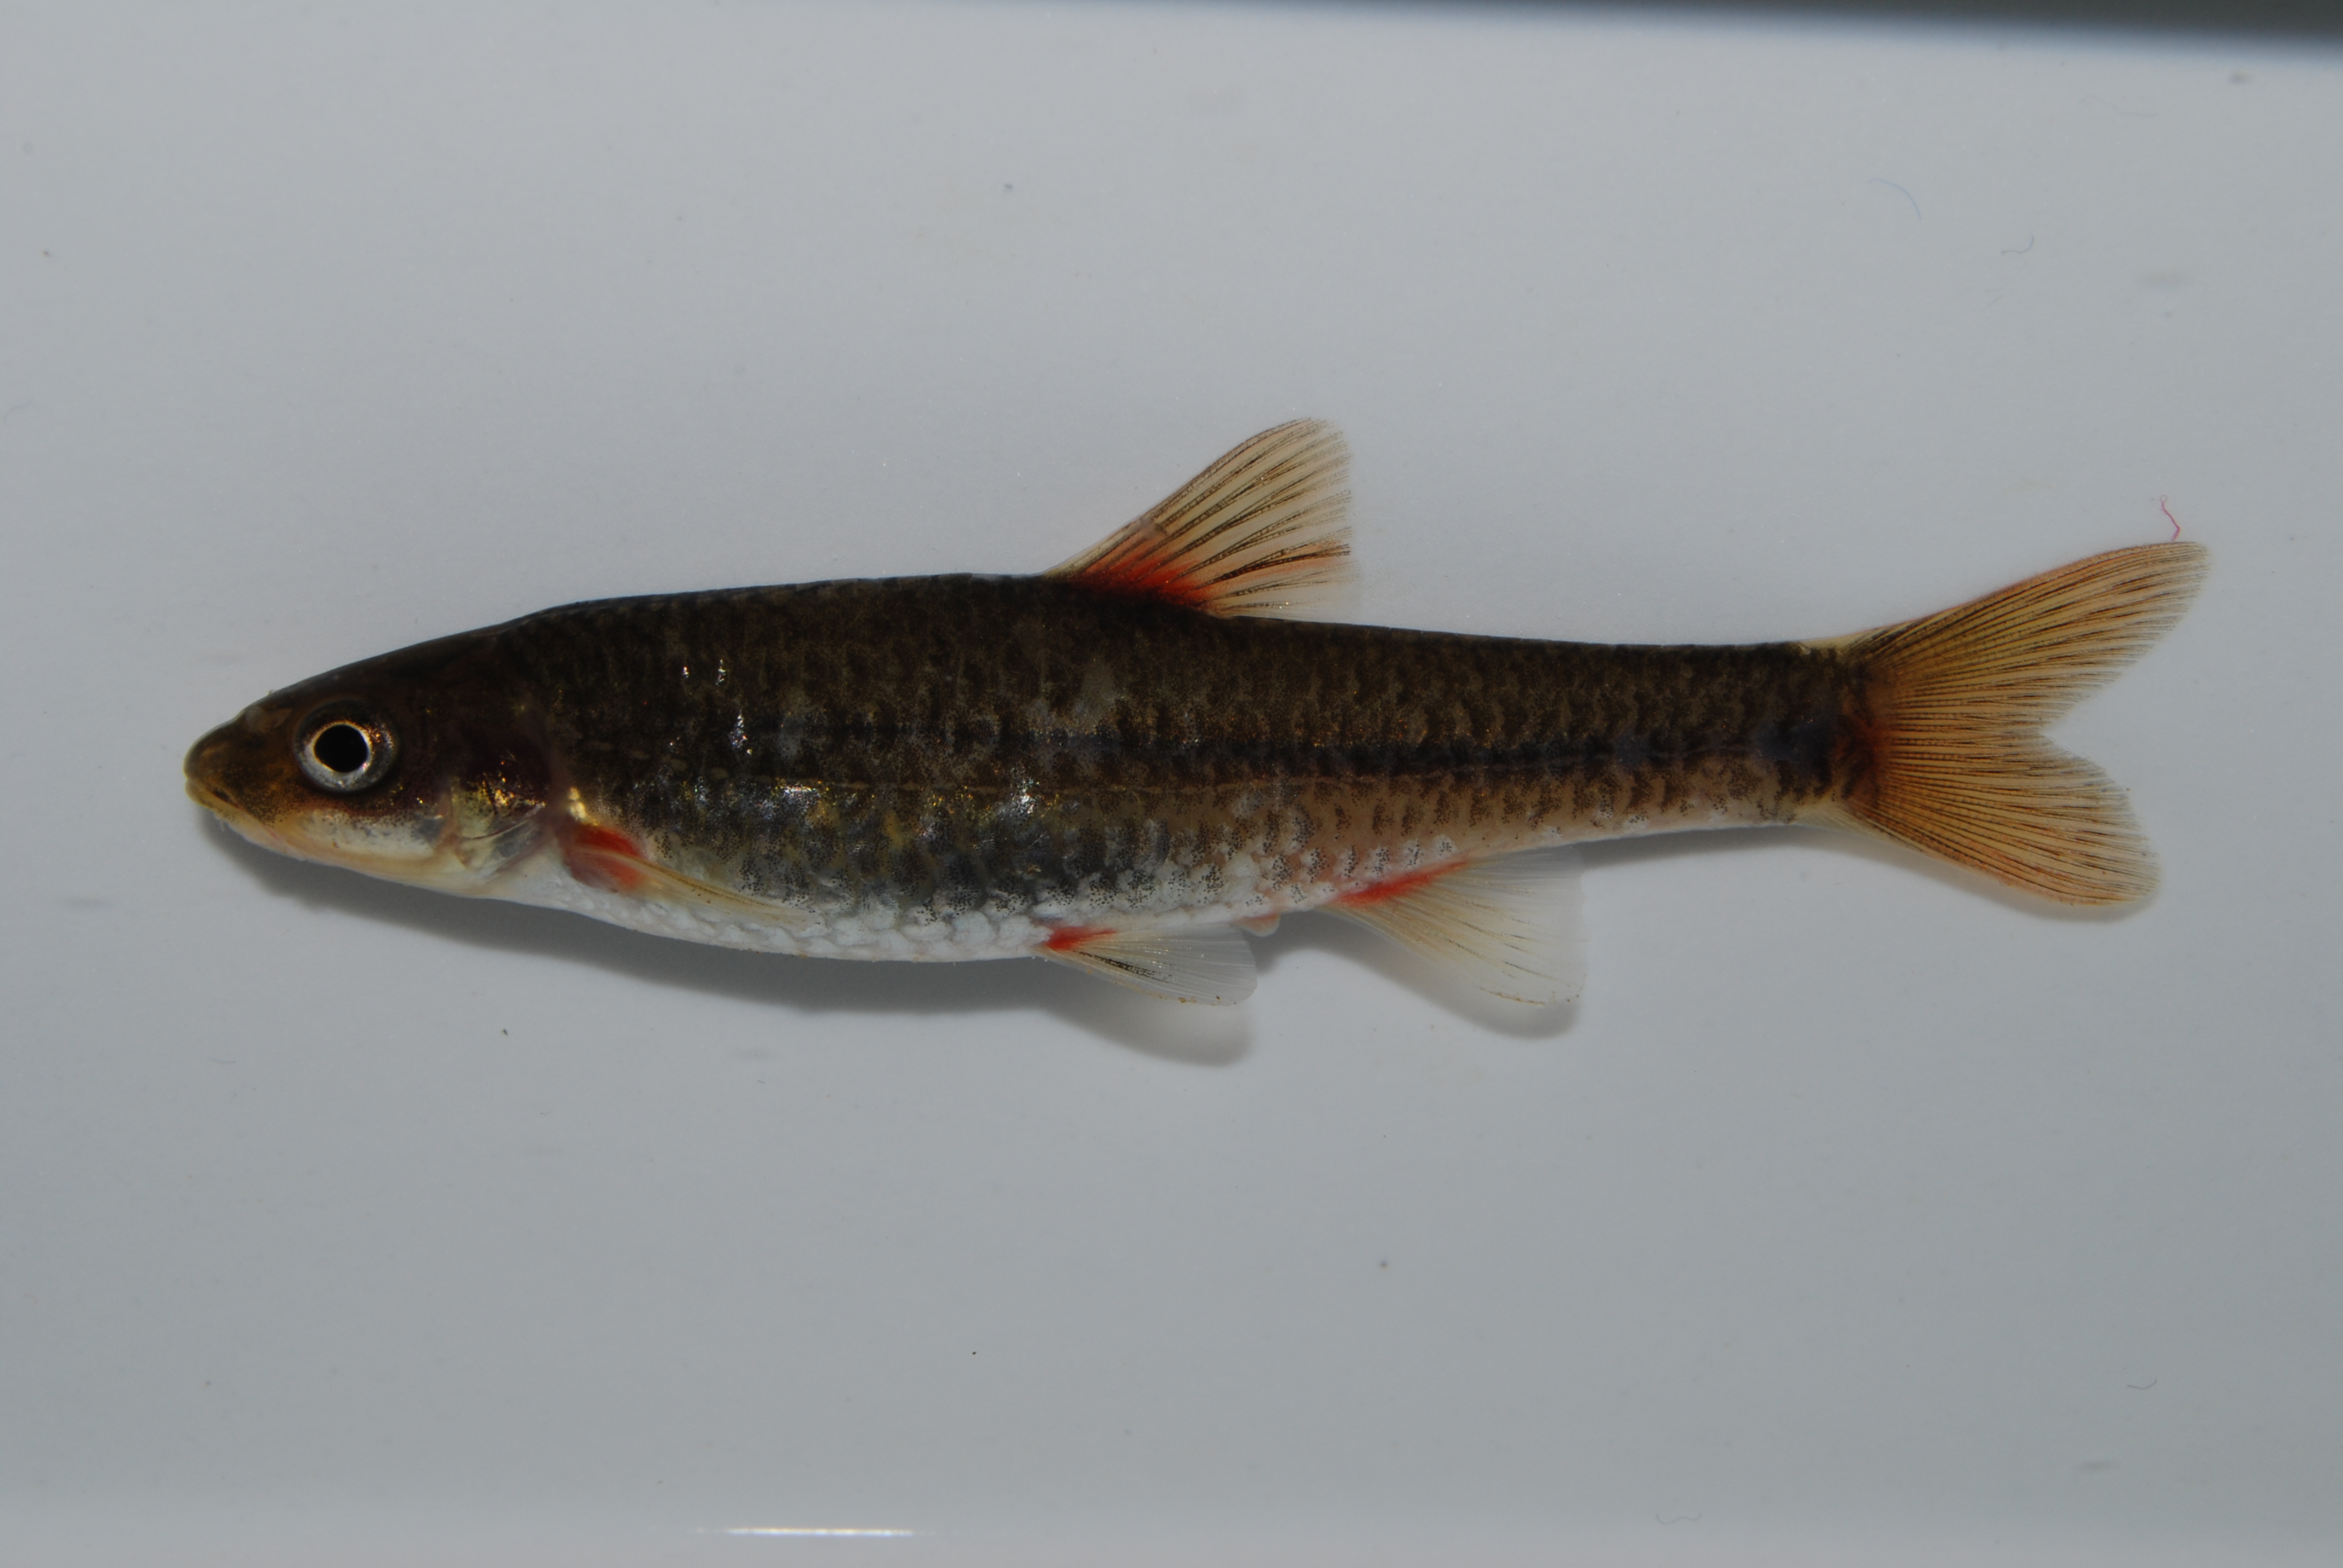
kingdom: Animalia
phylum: Chordata
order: Cypriniformes
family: Cyprinidae
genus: Pseudobarbus
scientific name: Pseudobarbus tenuis
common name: Slender redfin
